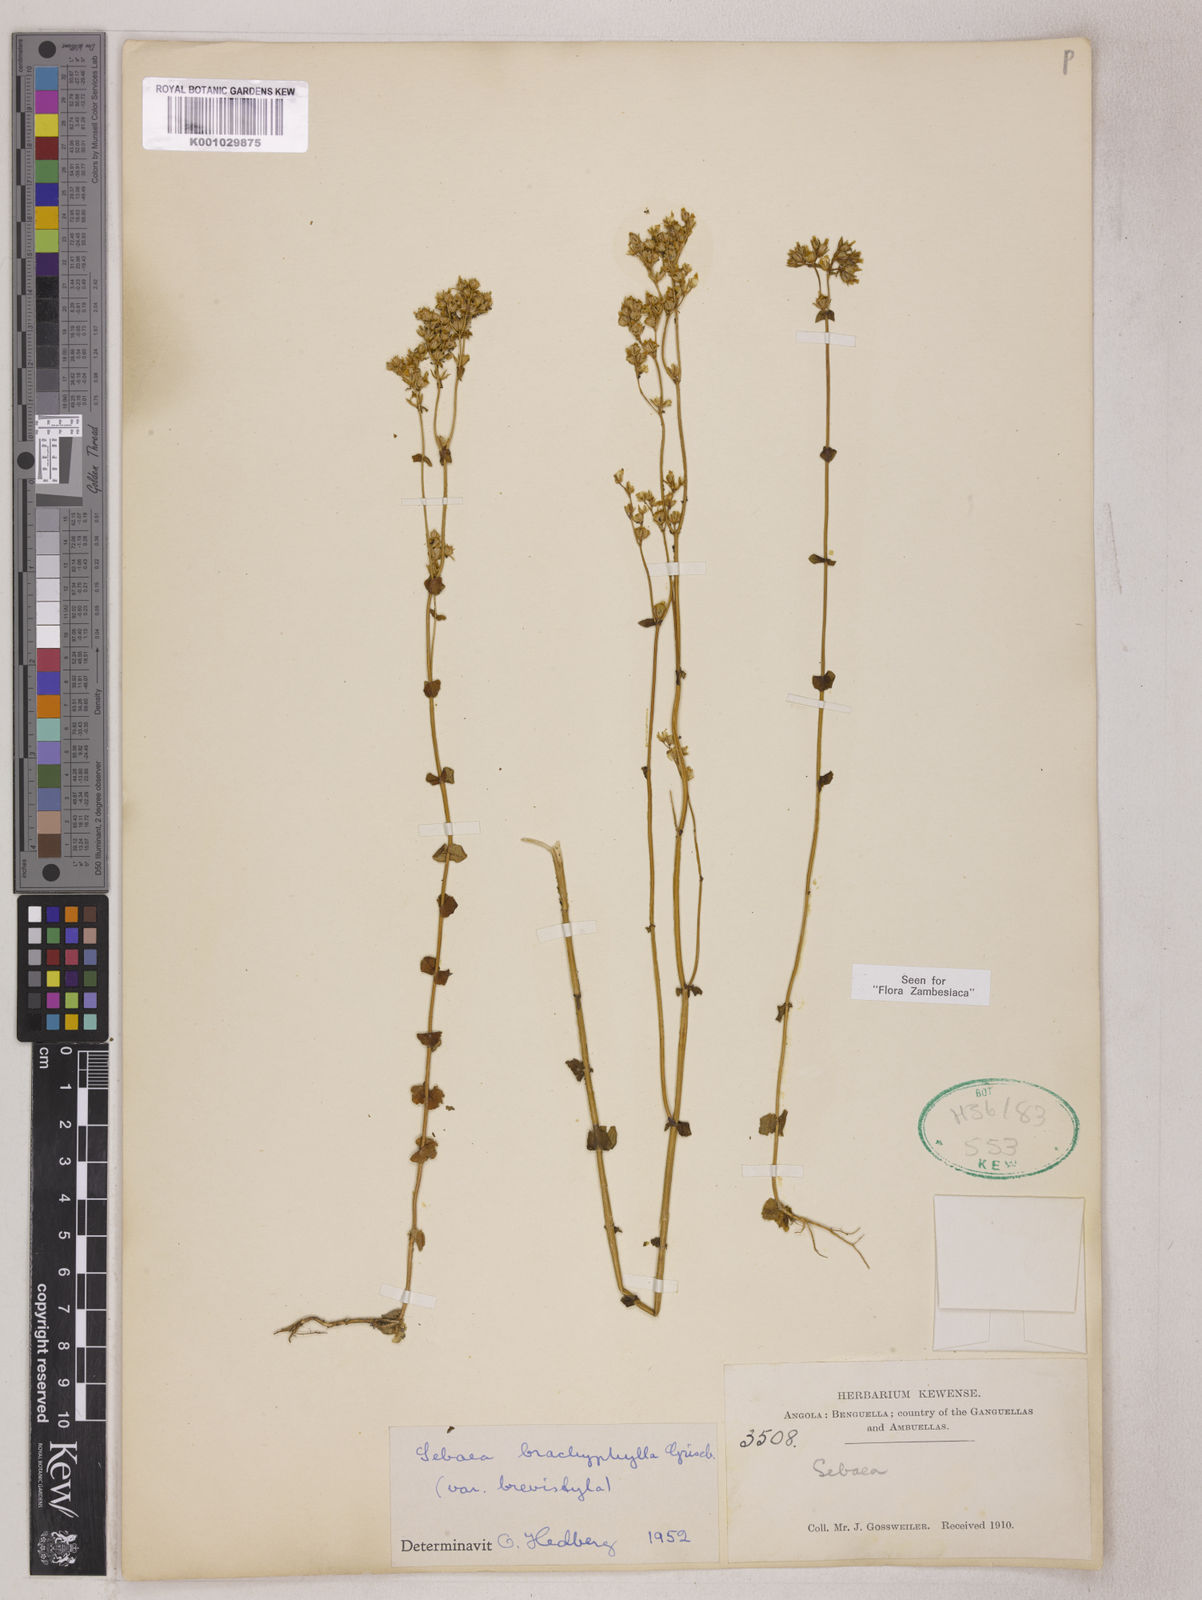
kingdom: Plantae
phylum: Tracheophyta
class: Magnoliopsida
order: Gentianales
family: Gentianaceae
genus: Sebaea
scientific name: Sebaea brachyphylla
